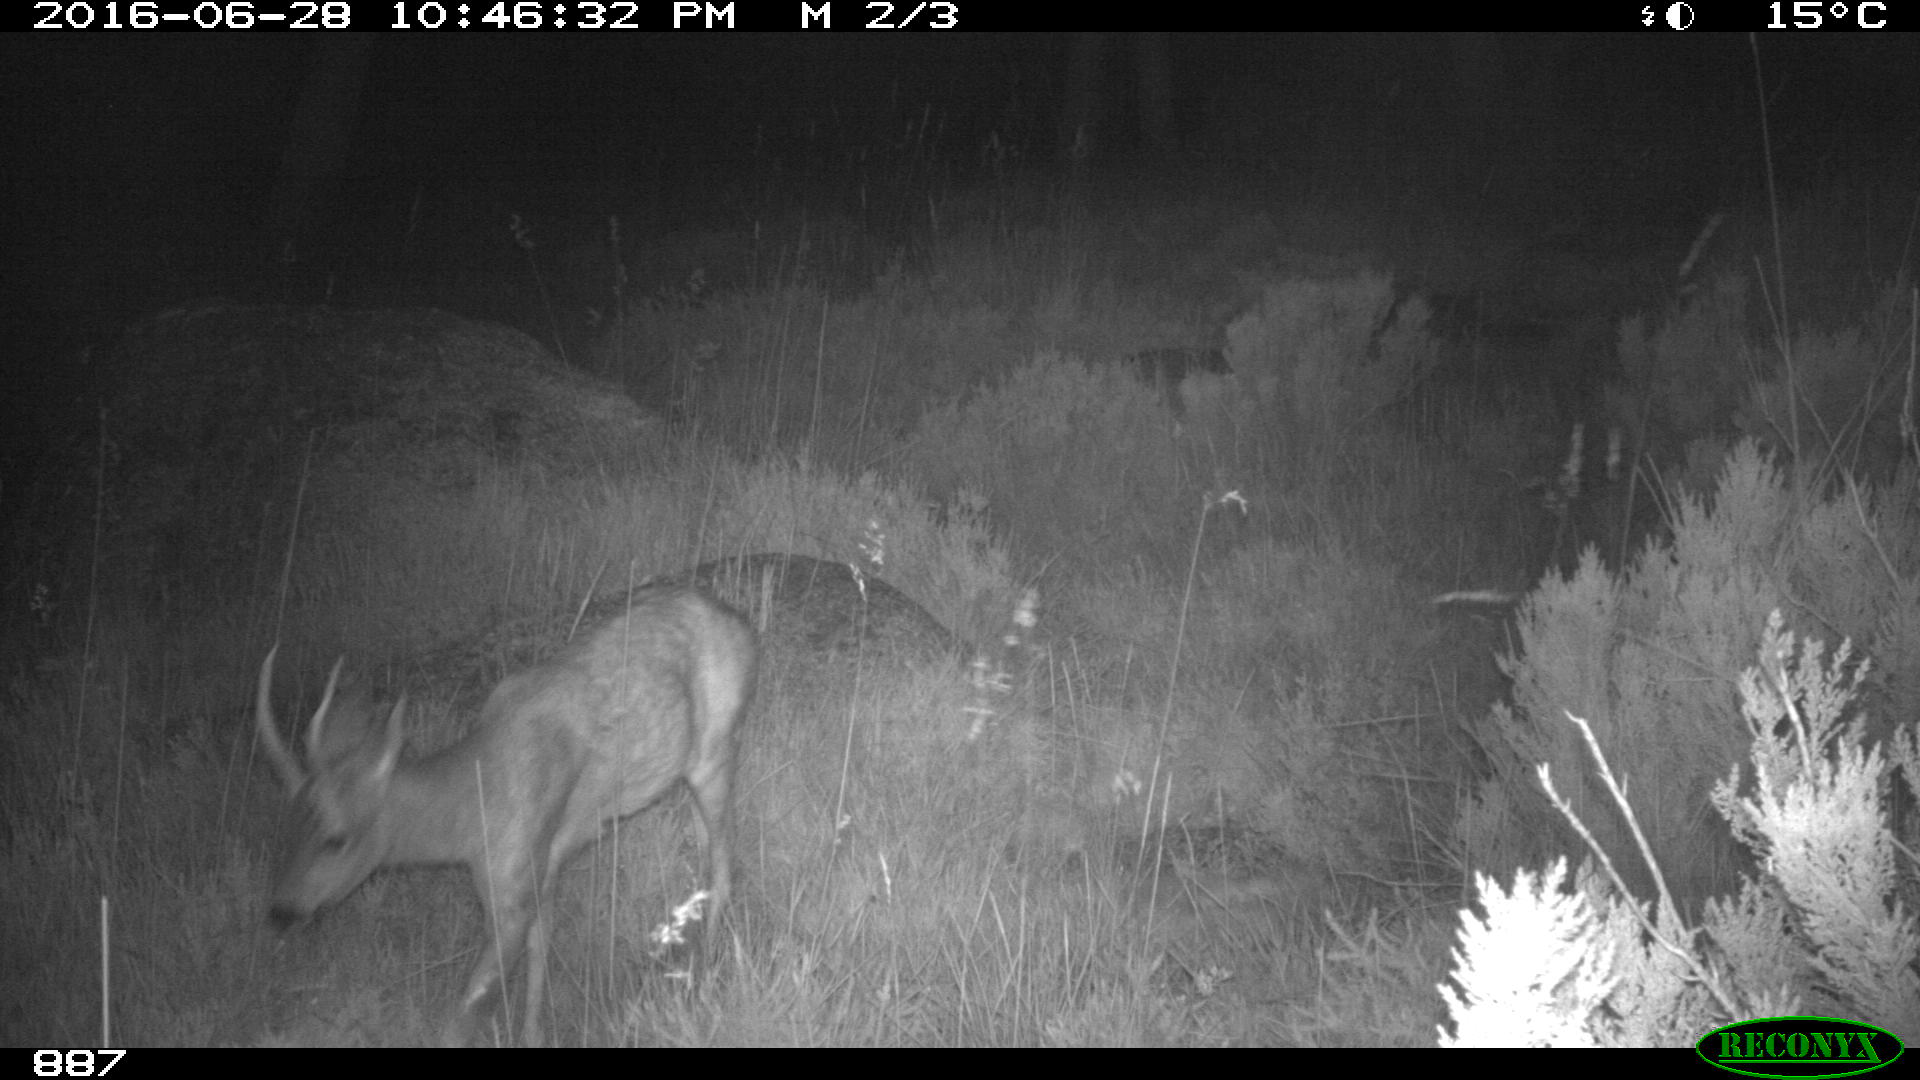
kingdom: Animalia
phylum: Chordata
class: Mammalia
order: Artiodactyla
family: Cervidae
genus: Capreolus
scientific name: Capreolus capreolus
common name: Western roe deer
